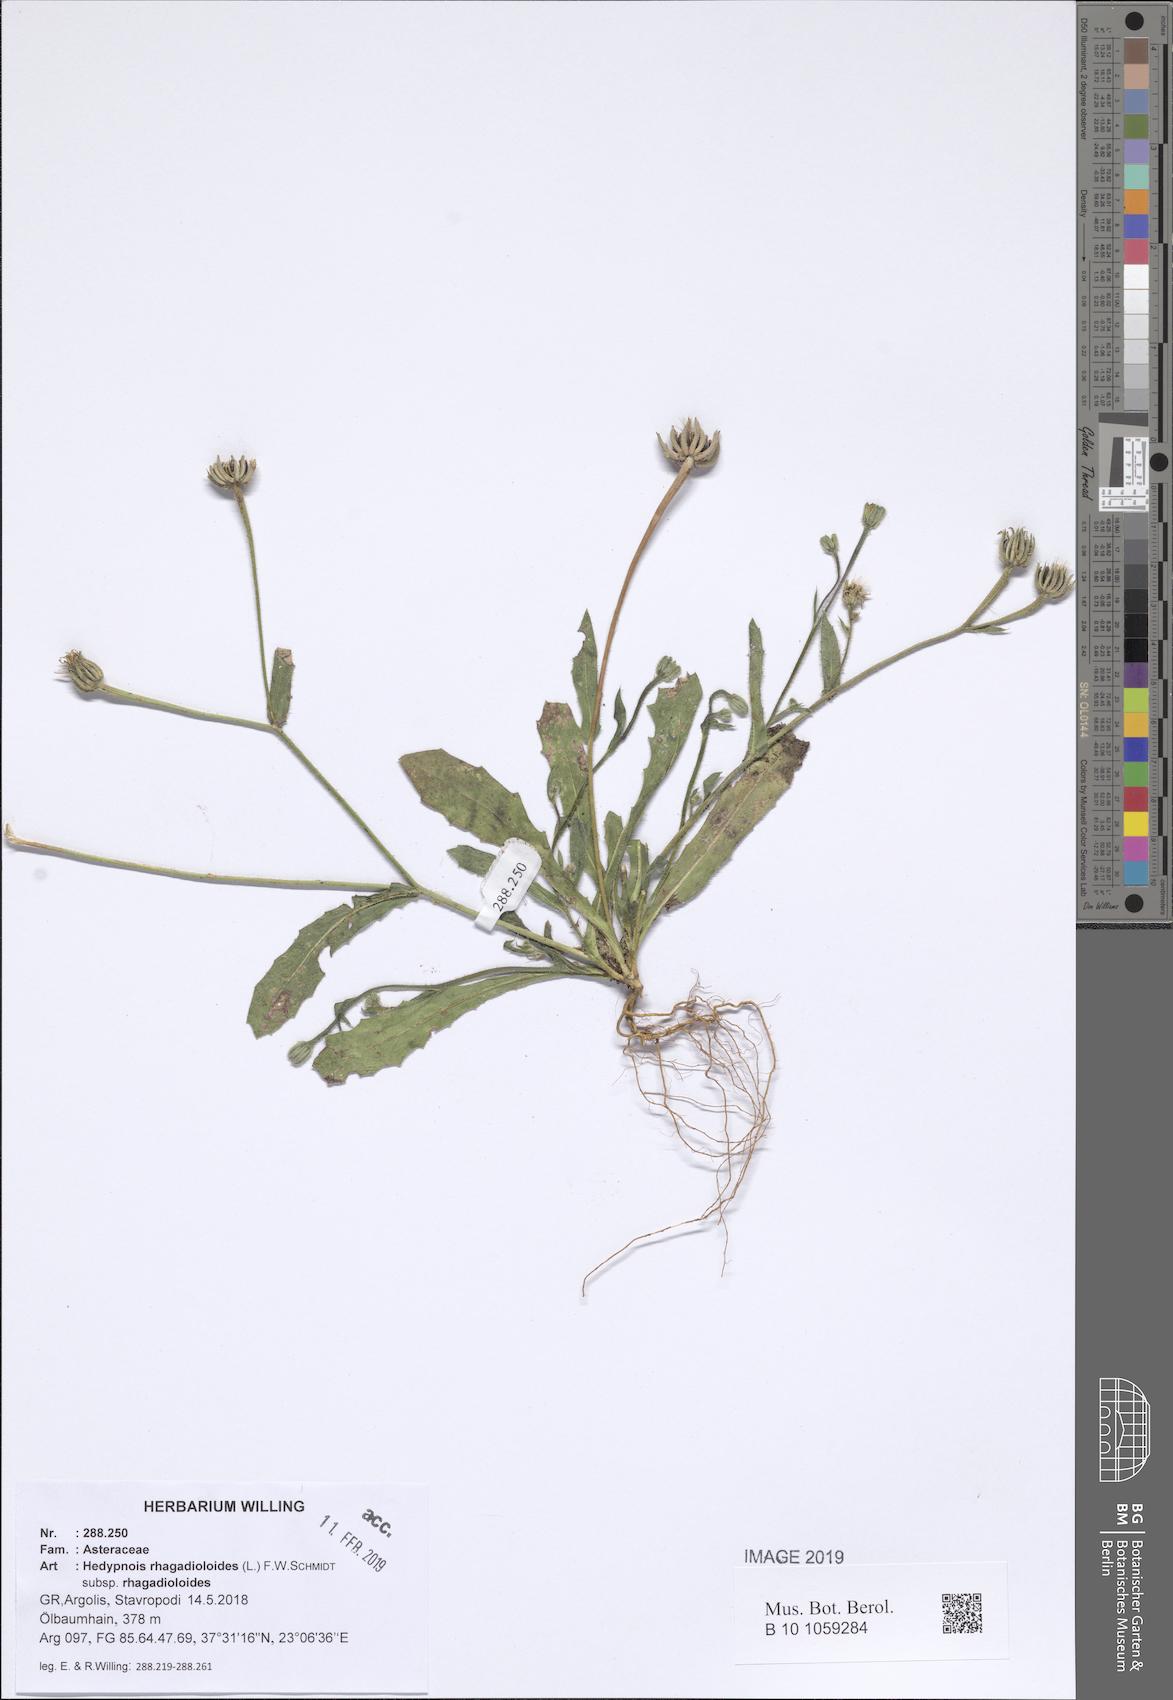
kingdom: Plantae
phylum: Tracheophyta
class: Magnoliopsida
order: Asterales
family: Asteraceae
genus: Hedypnois
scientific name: Hedypnois rhagadioloides
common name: Cretan weed
